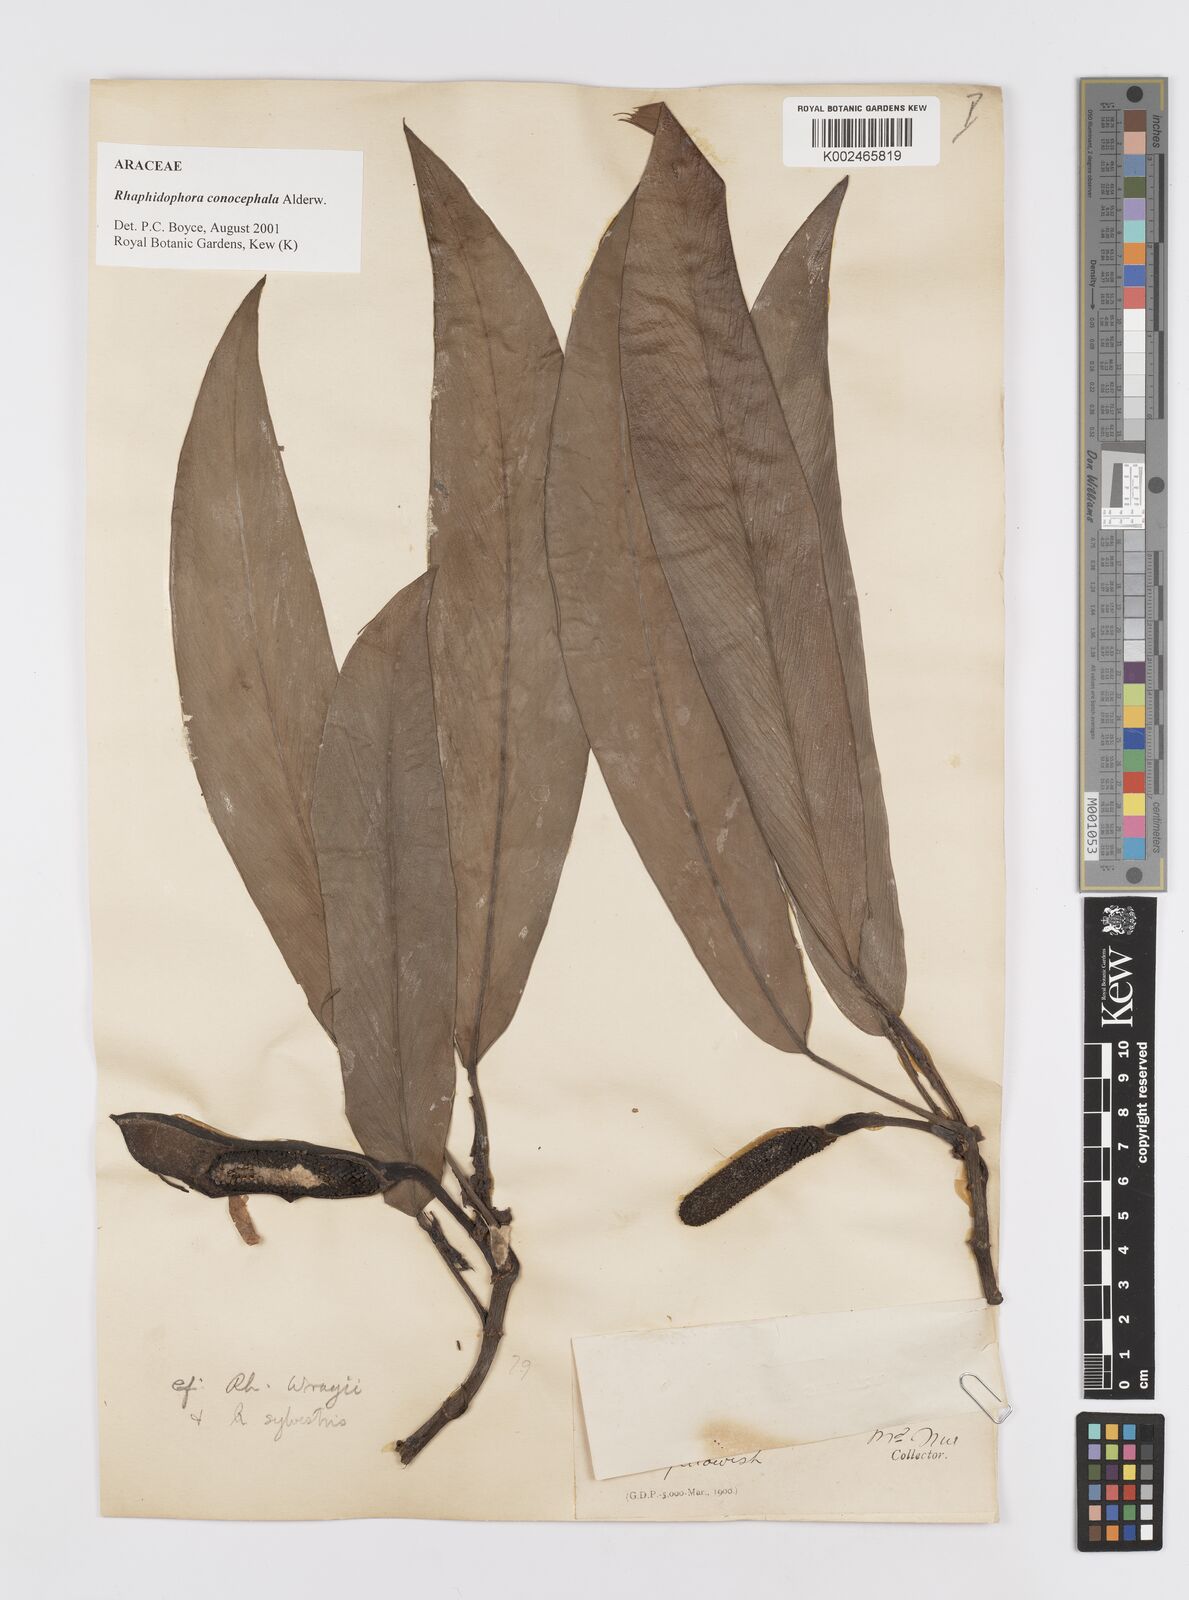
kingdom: Plantae
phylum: Tracheophyta
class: Liliopsida
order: Alismatales
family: Araceae
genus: Rhaphidophora
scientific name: Rhaphidophora conocephala
